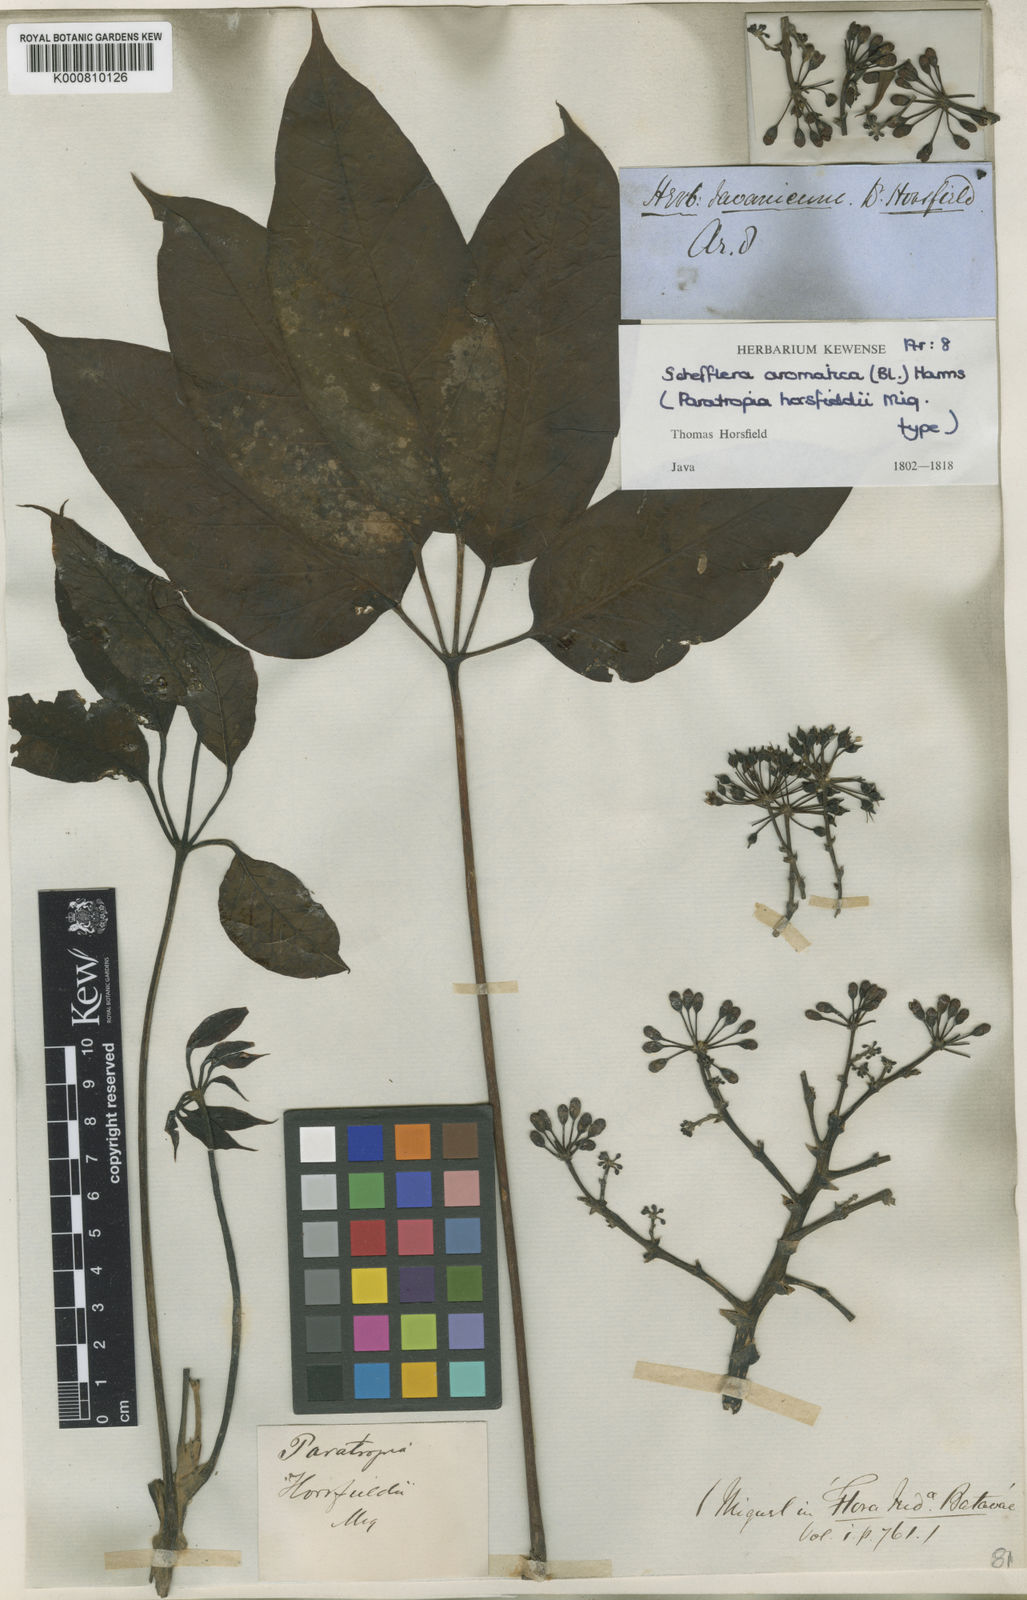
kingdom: Plantae
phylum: Tracheophyta
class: Magnoliopsida
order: Apiales
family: Araliaceae
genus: Heptapleurum
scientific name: Heptapleurum aromaticum
